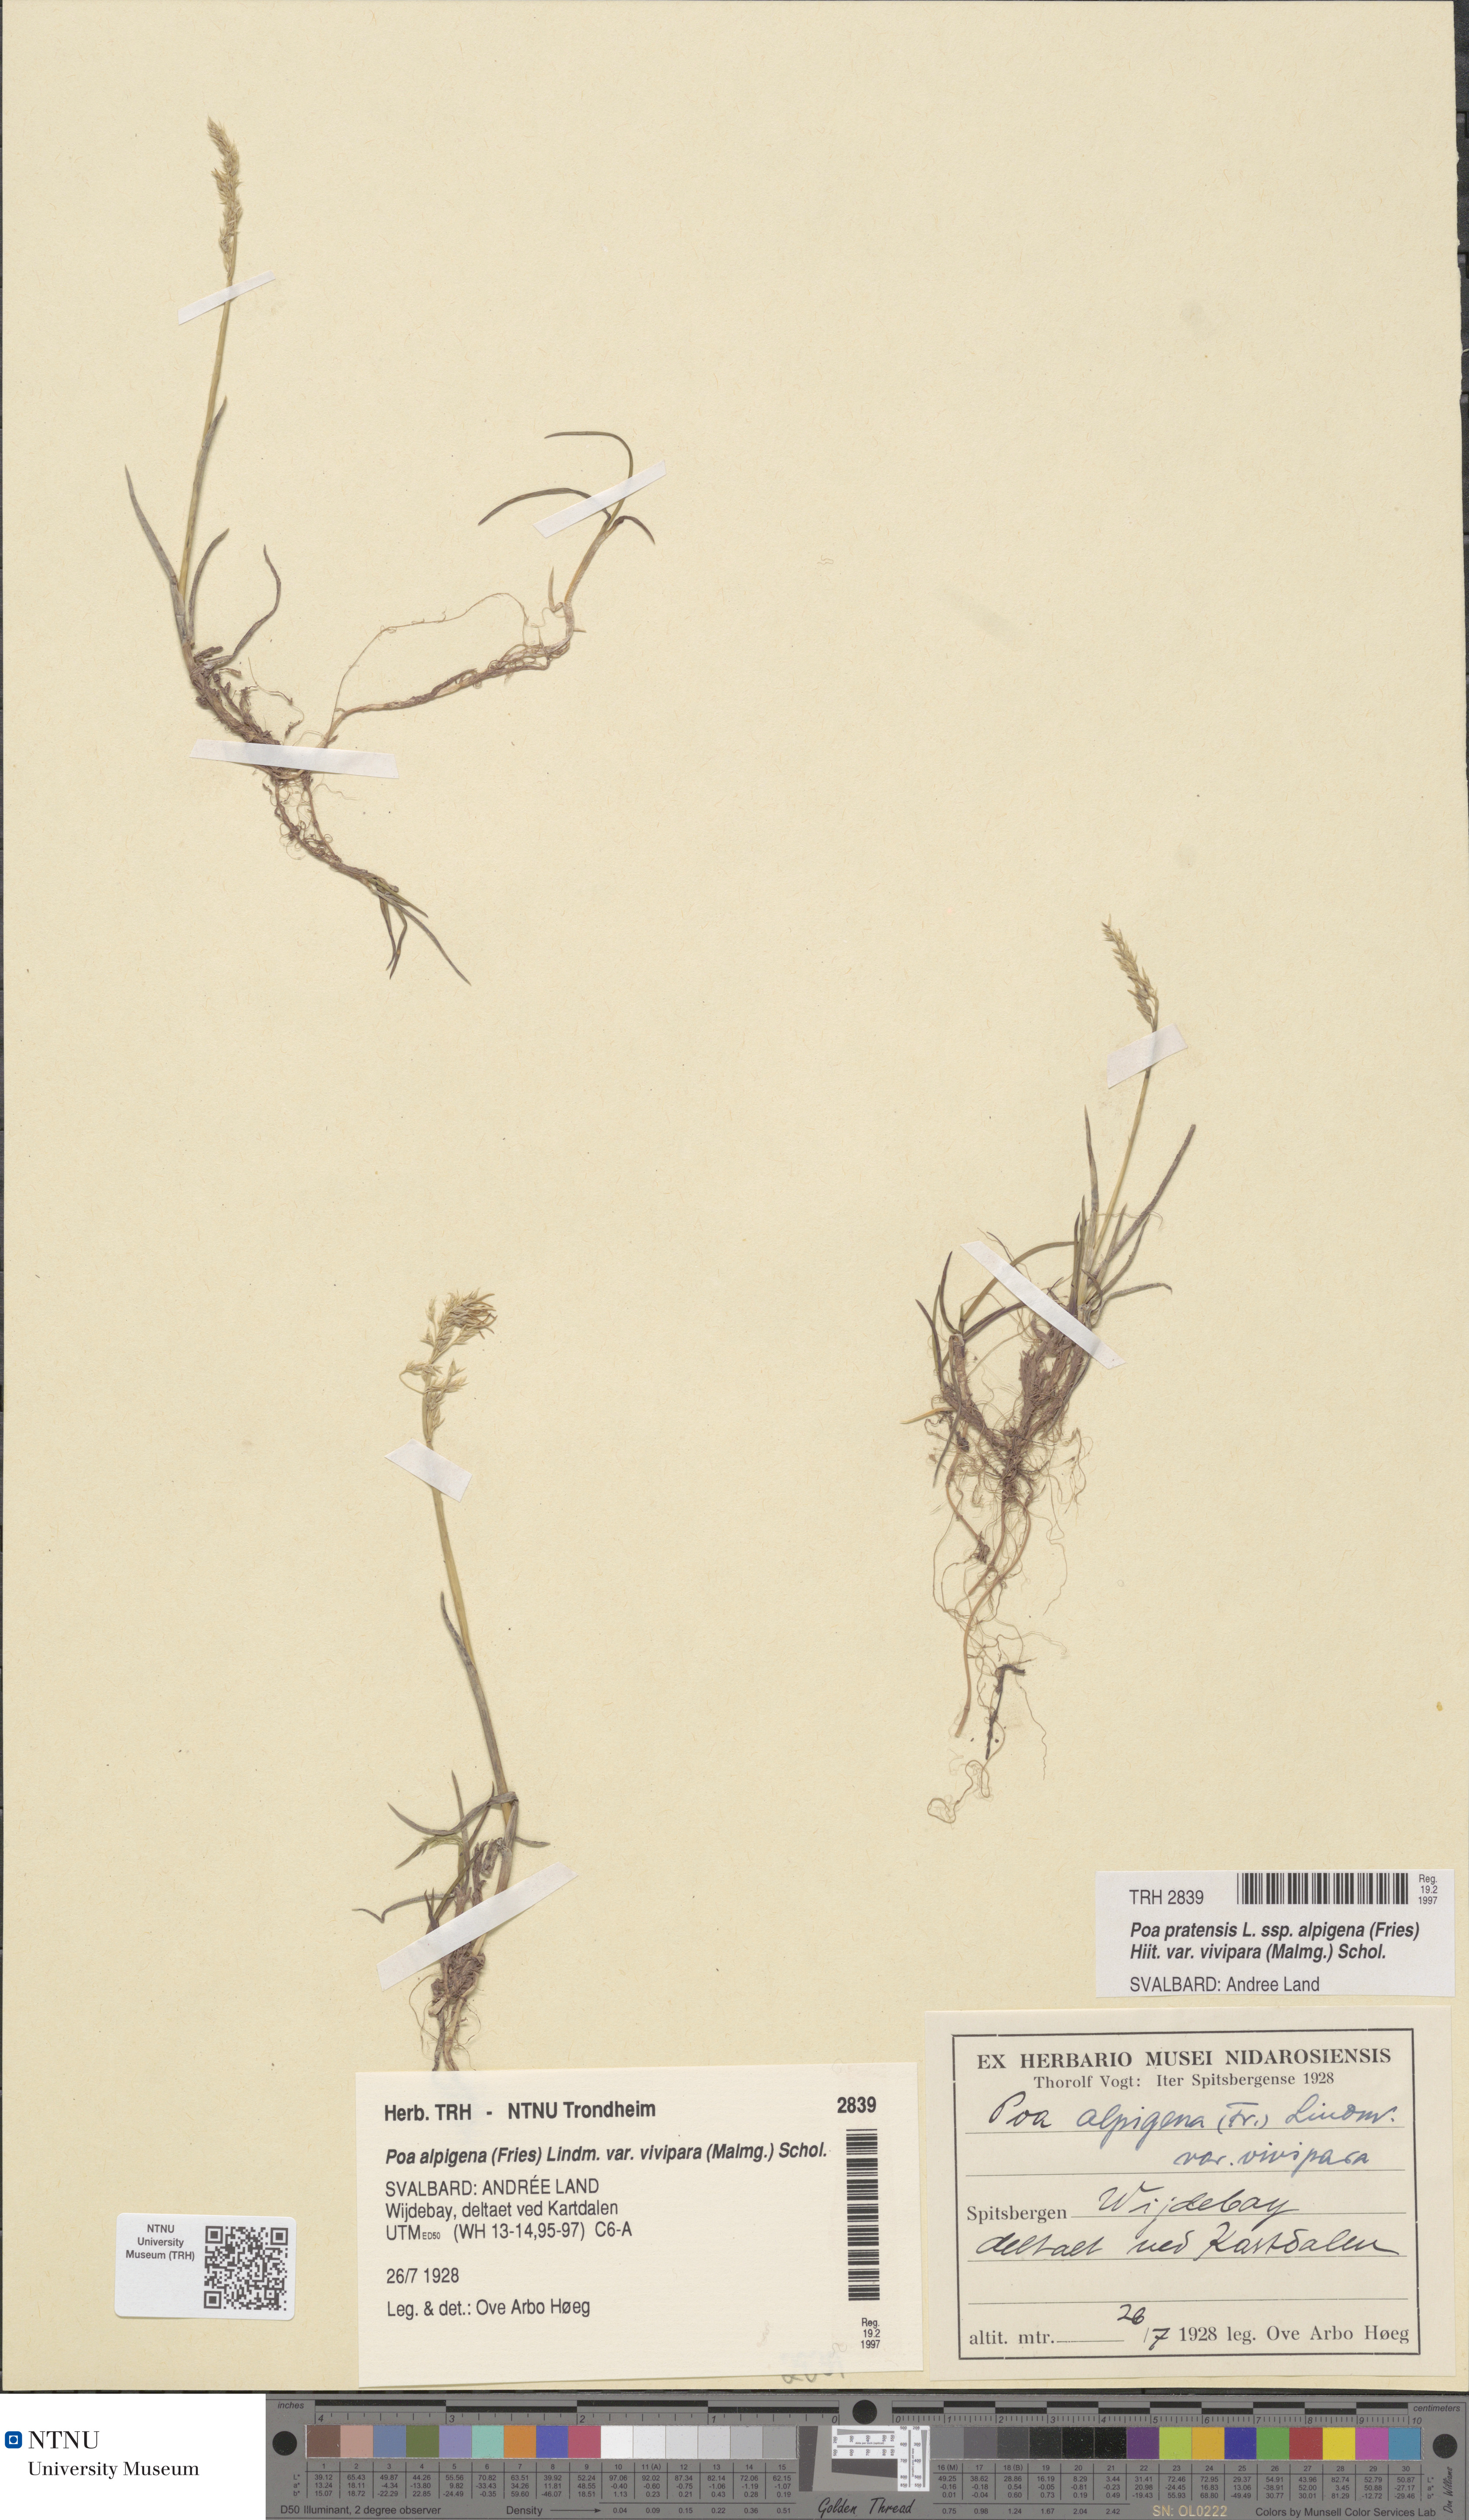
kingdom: Plantae
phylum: Tracheophyta
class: Liliopsida
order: Poales
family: Poaceae
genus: Poa
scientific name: Poa arctica
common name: Arctic bluegrass
